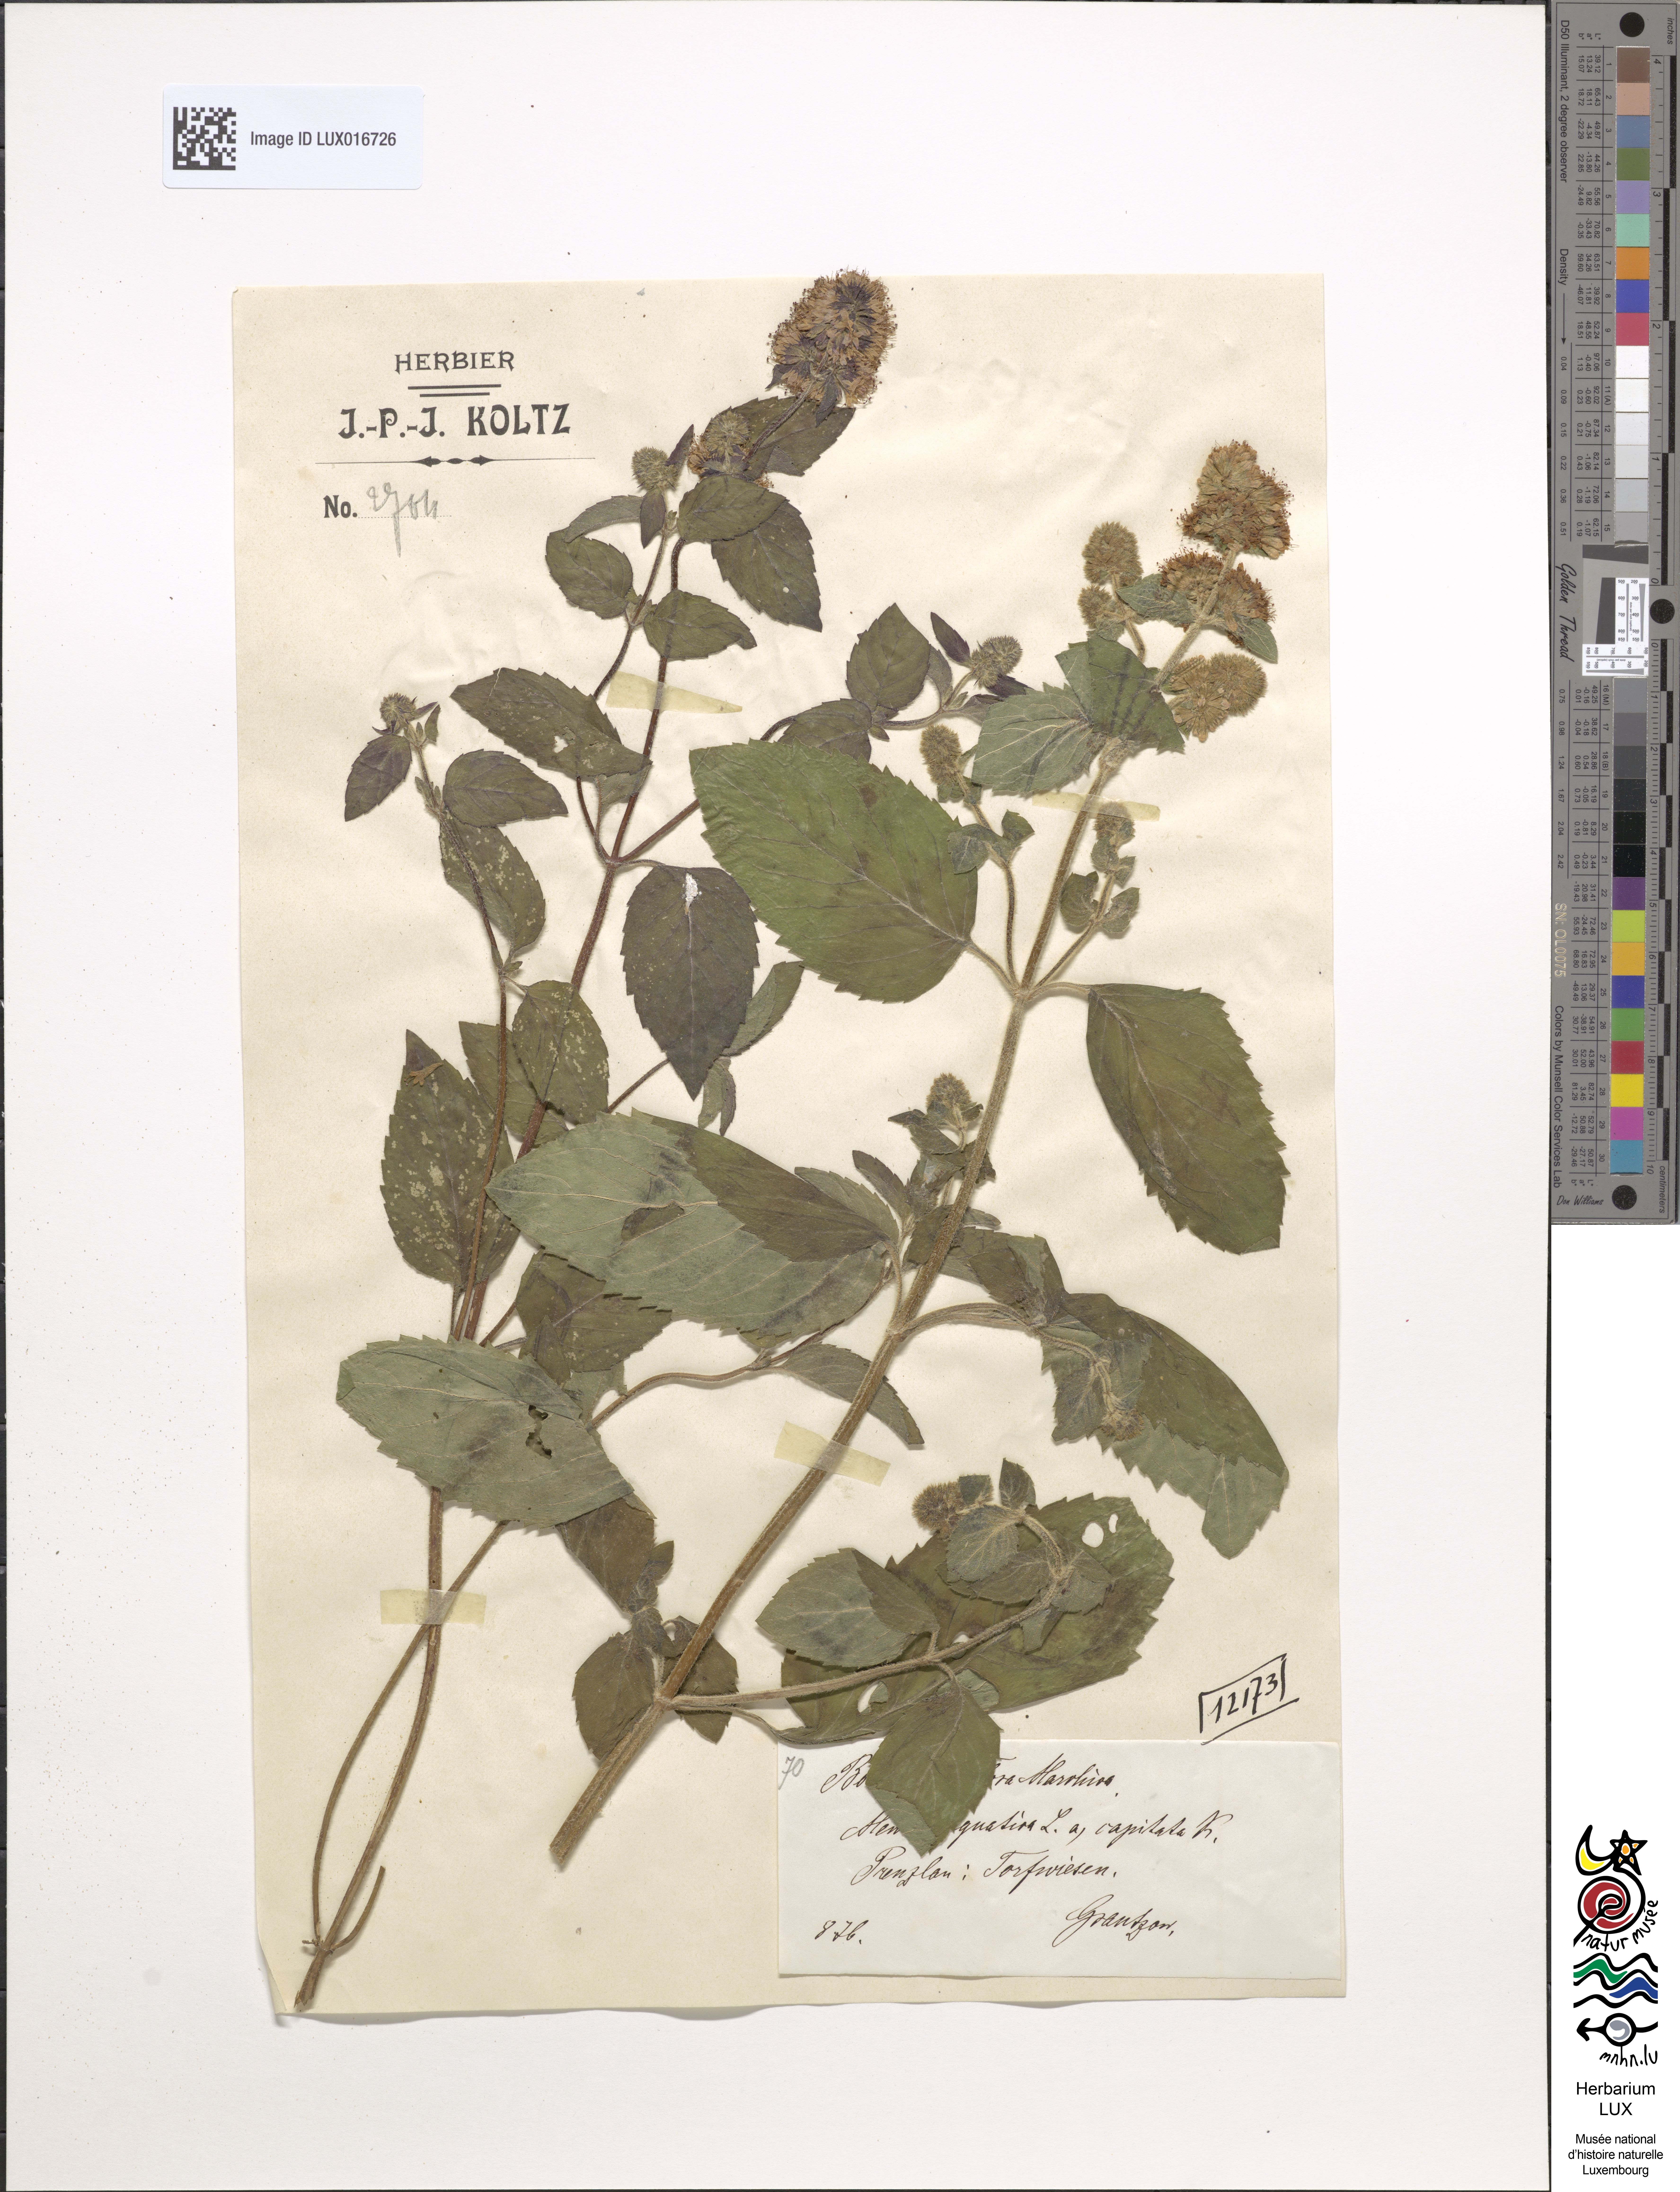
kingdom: Plantae
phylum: Tracheophyta
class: Magnoliopsida
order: Lamiales
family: Lamiaceae
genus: Mentha
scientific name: Mentha aquatica
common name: Water mint
